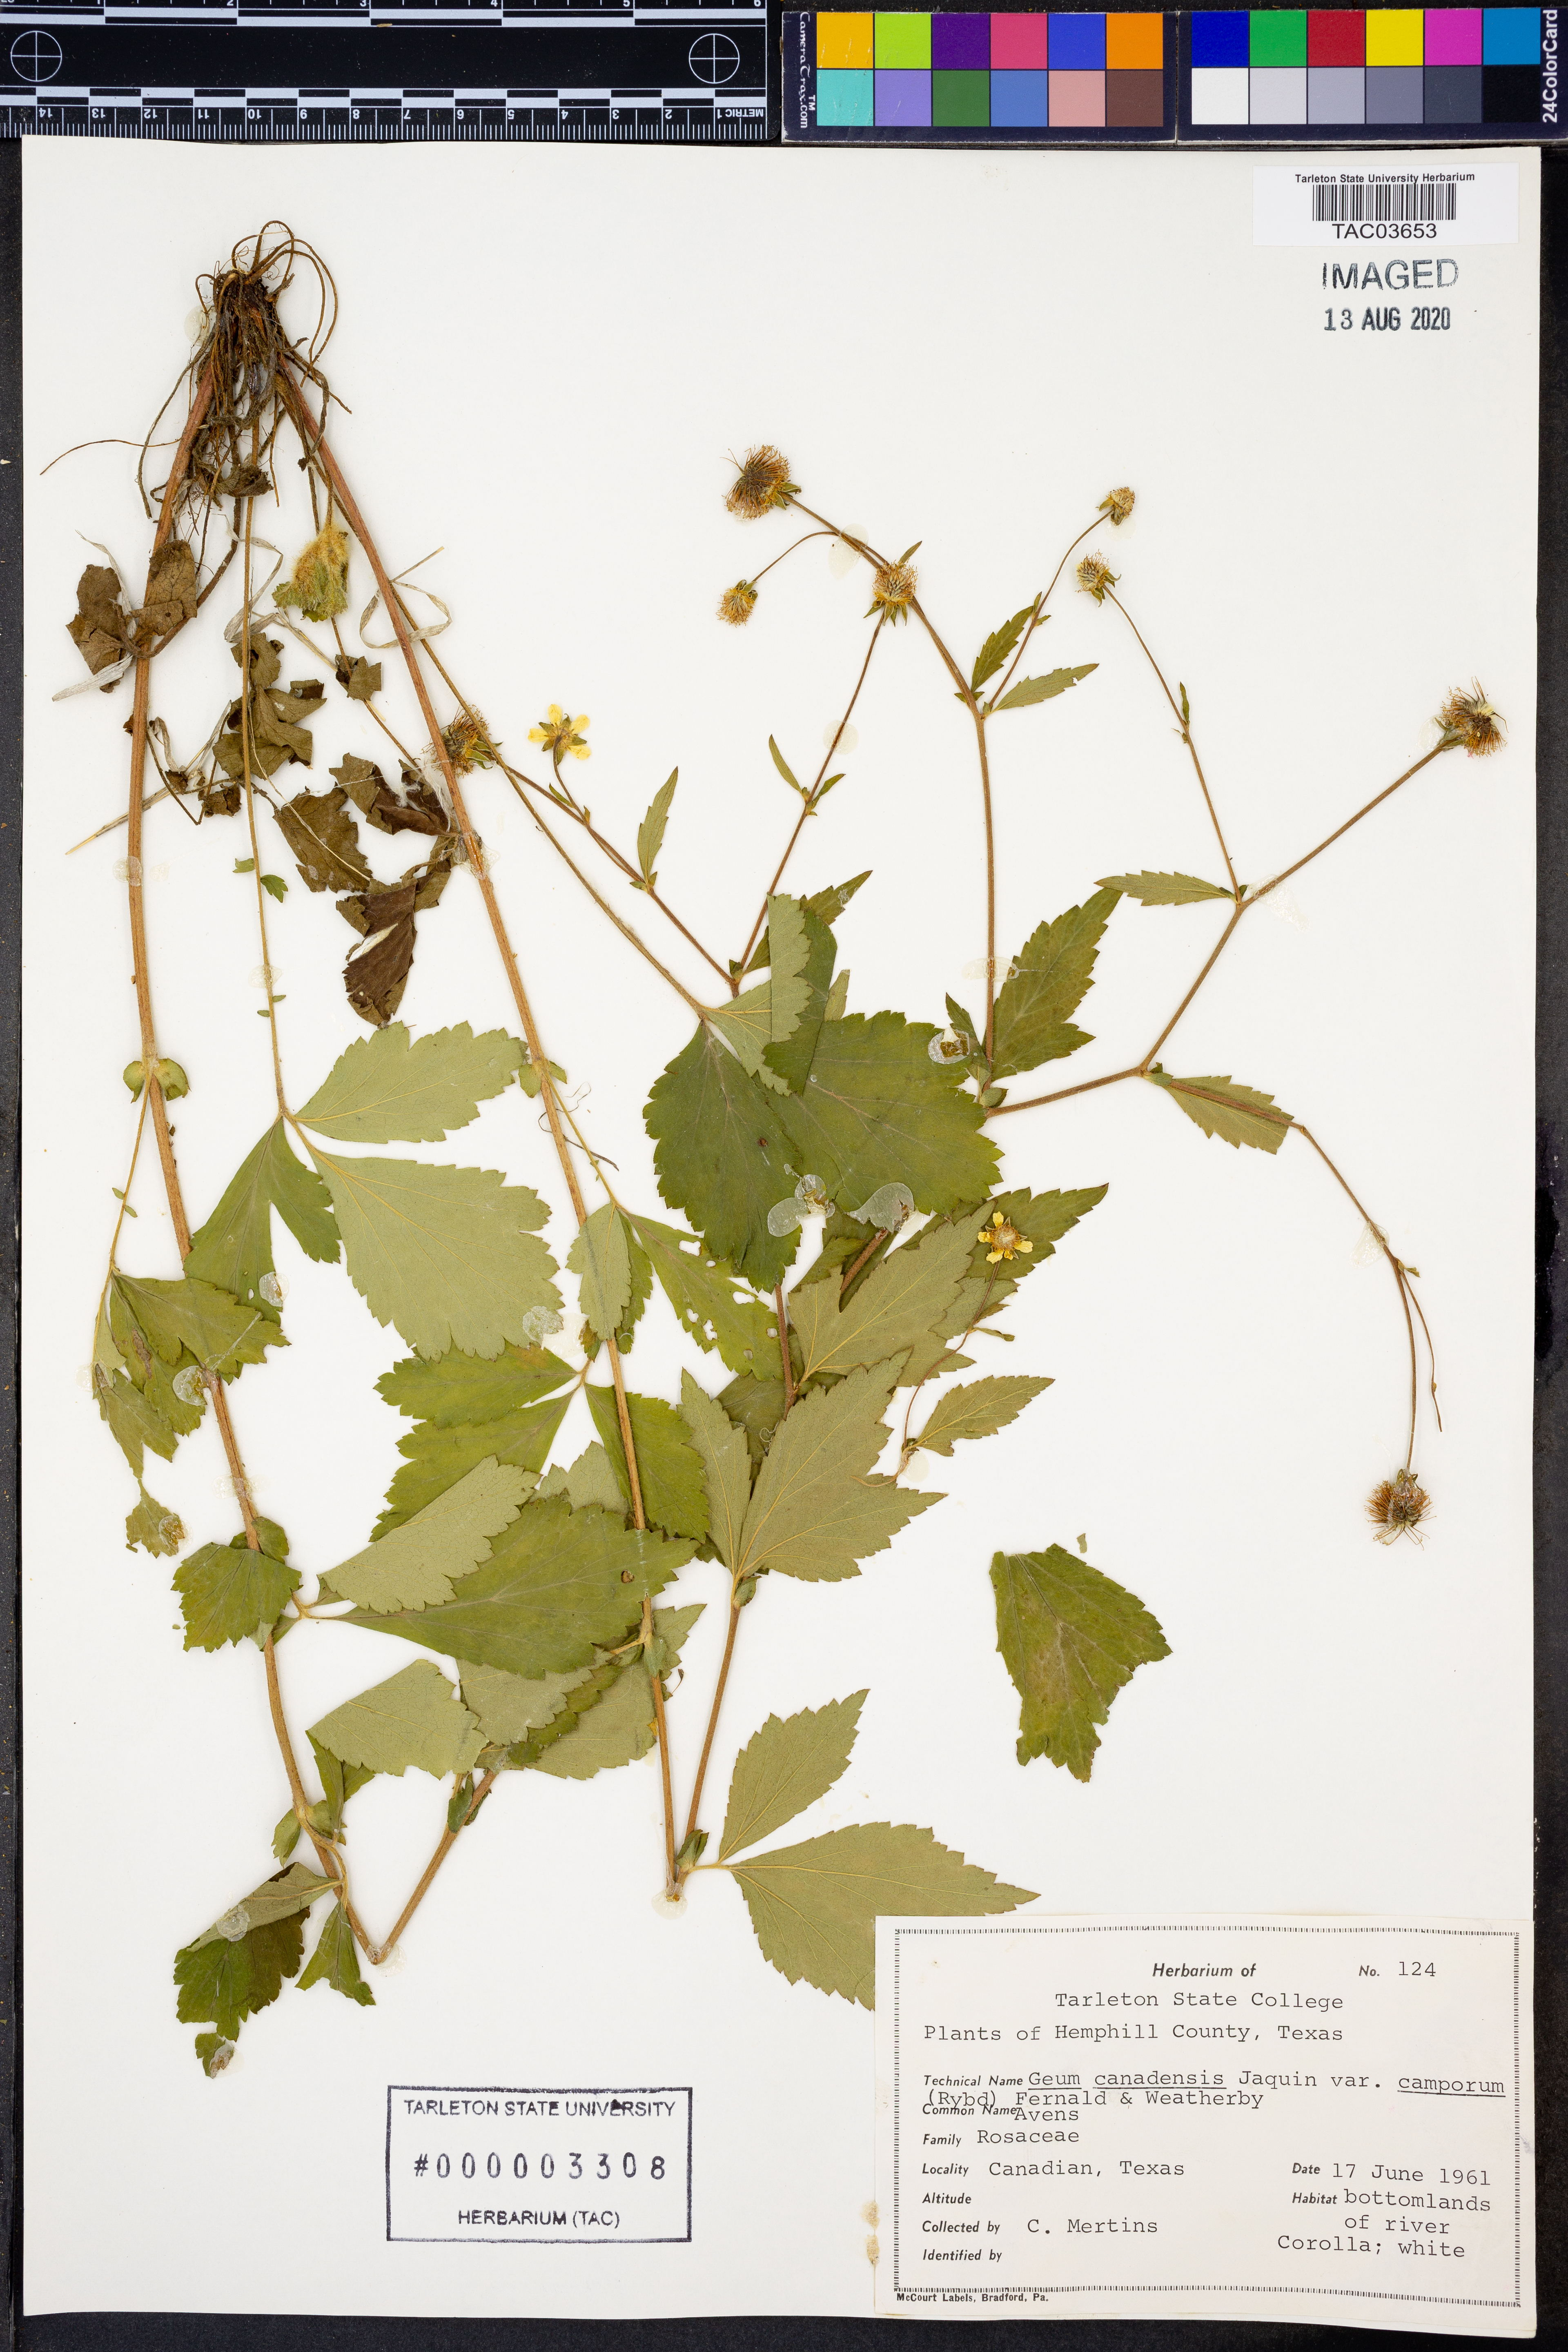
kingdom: Plantae
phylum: Tracheophyta
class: Magnoliopsida
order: Rosales
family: Rosaceae
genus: Geum
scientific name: Geum canadense
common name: White avens
